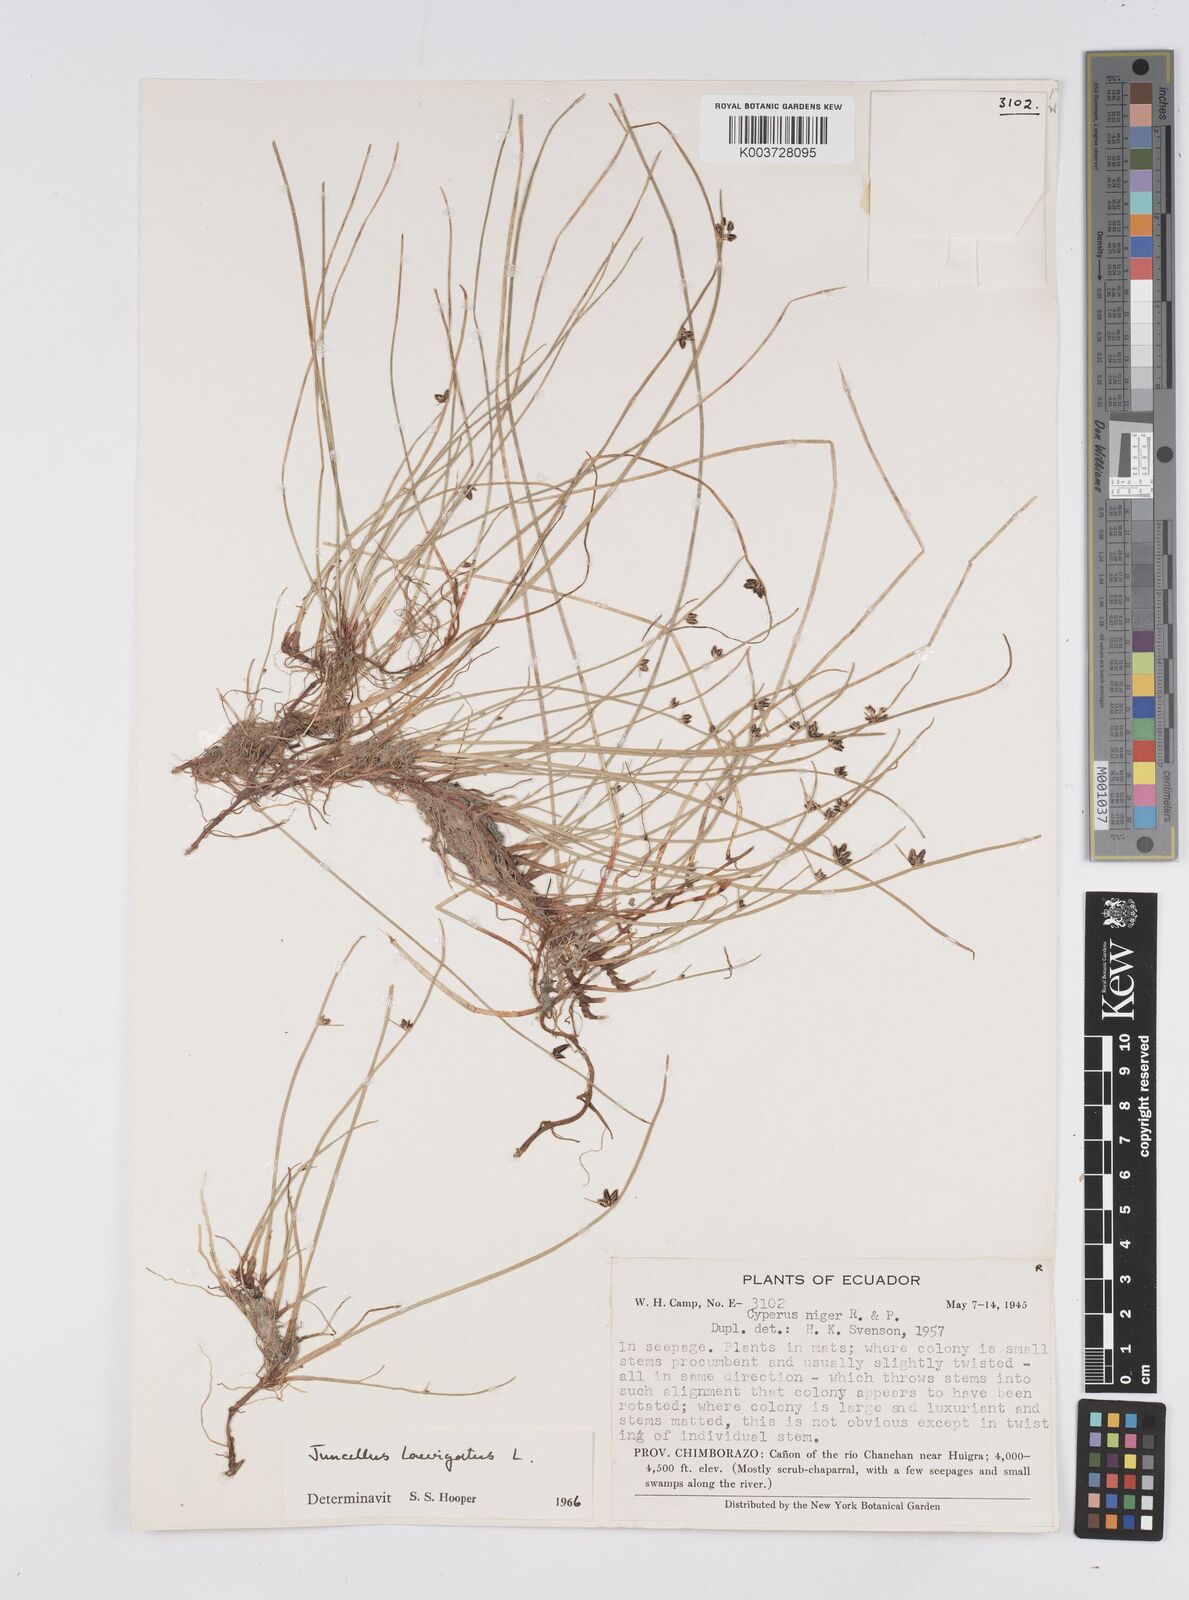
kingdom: Plantae
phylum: Tracheophyta
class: Liliopsida
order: Poales
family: Cyperaceae
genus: Cyperus
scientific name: Cyperus laevigatus
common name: Smooth flat sedge
